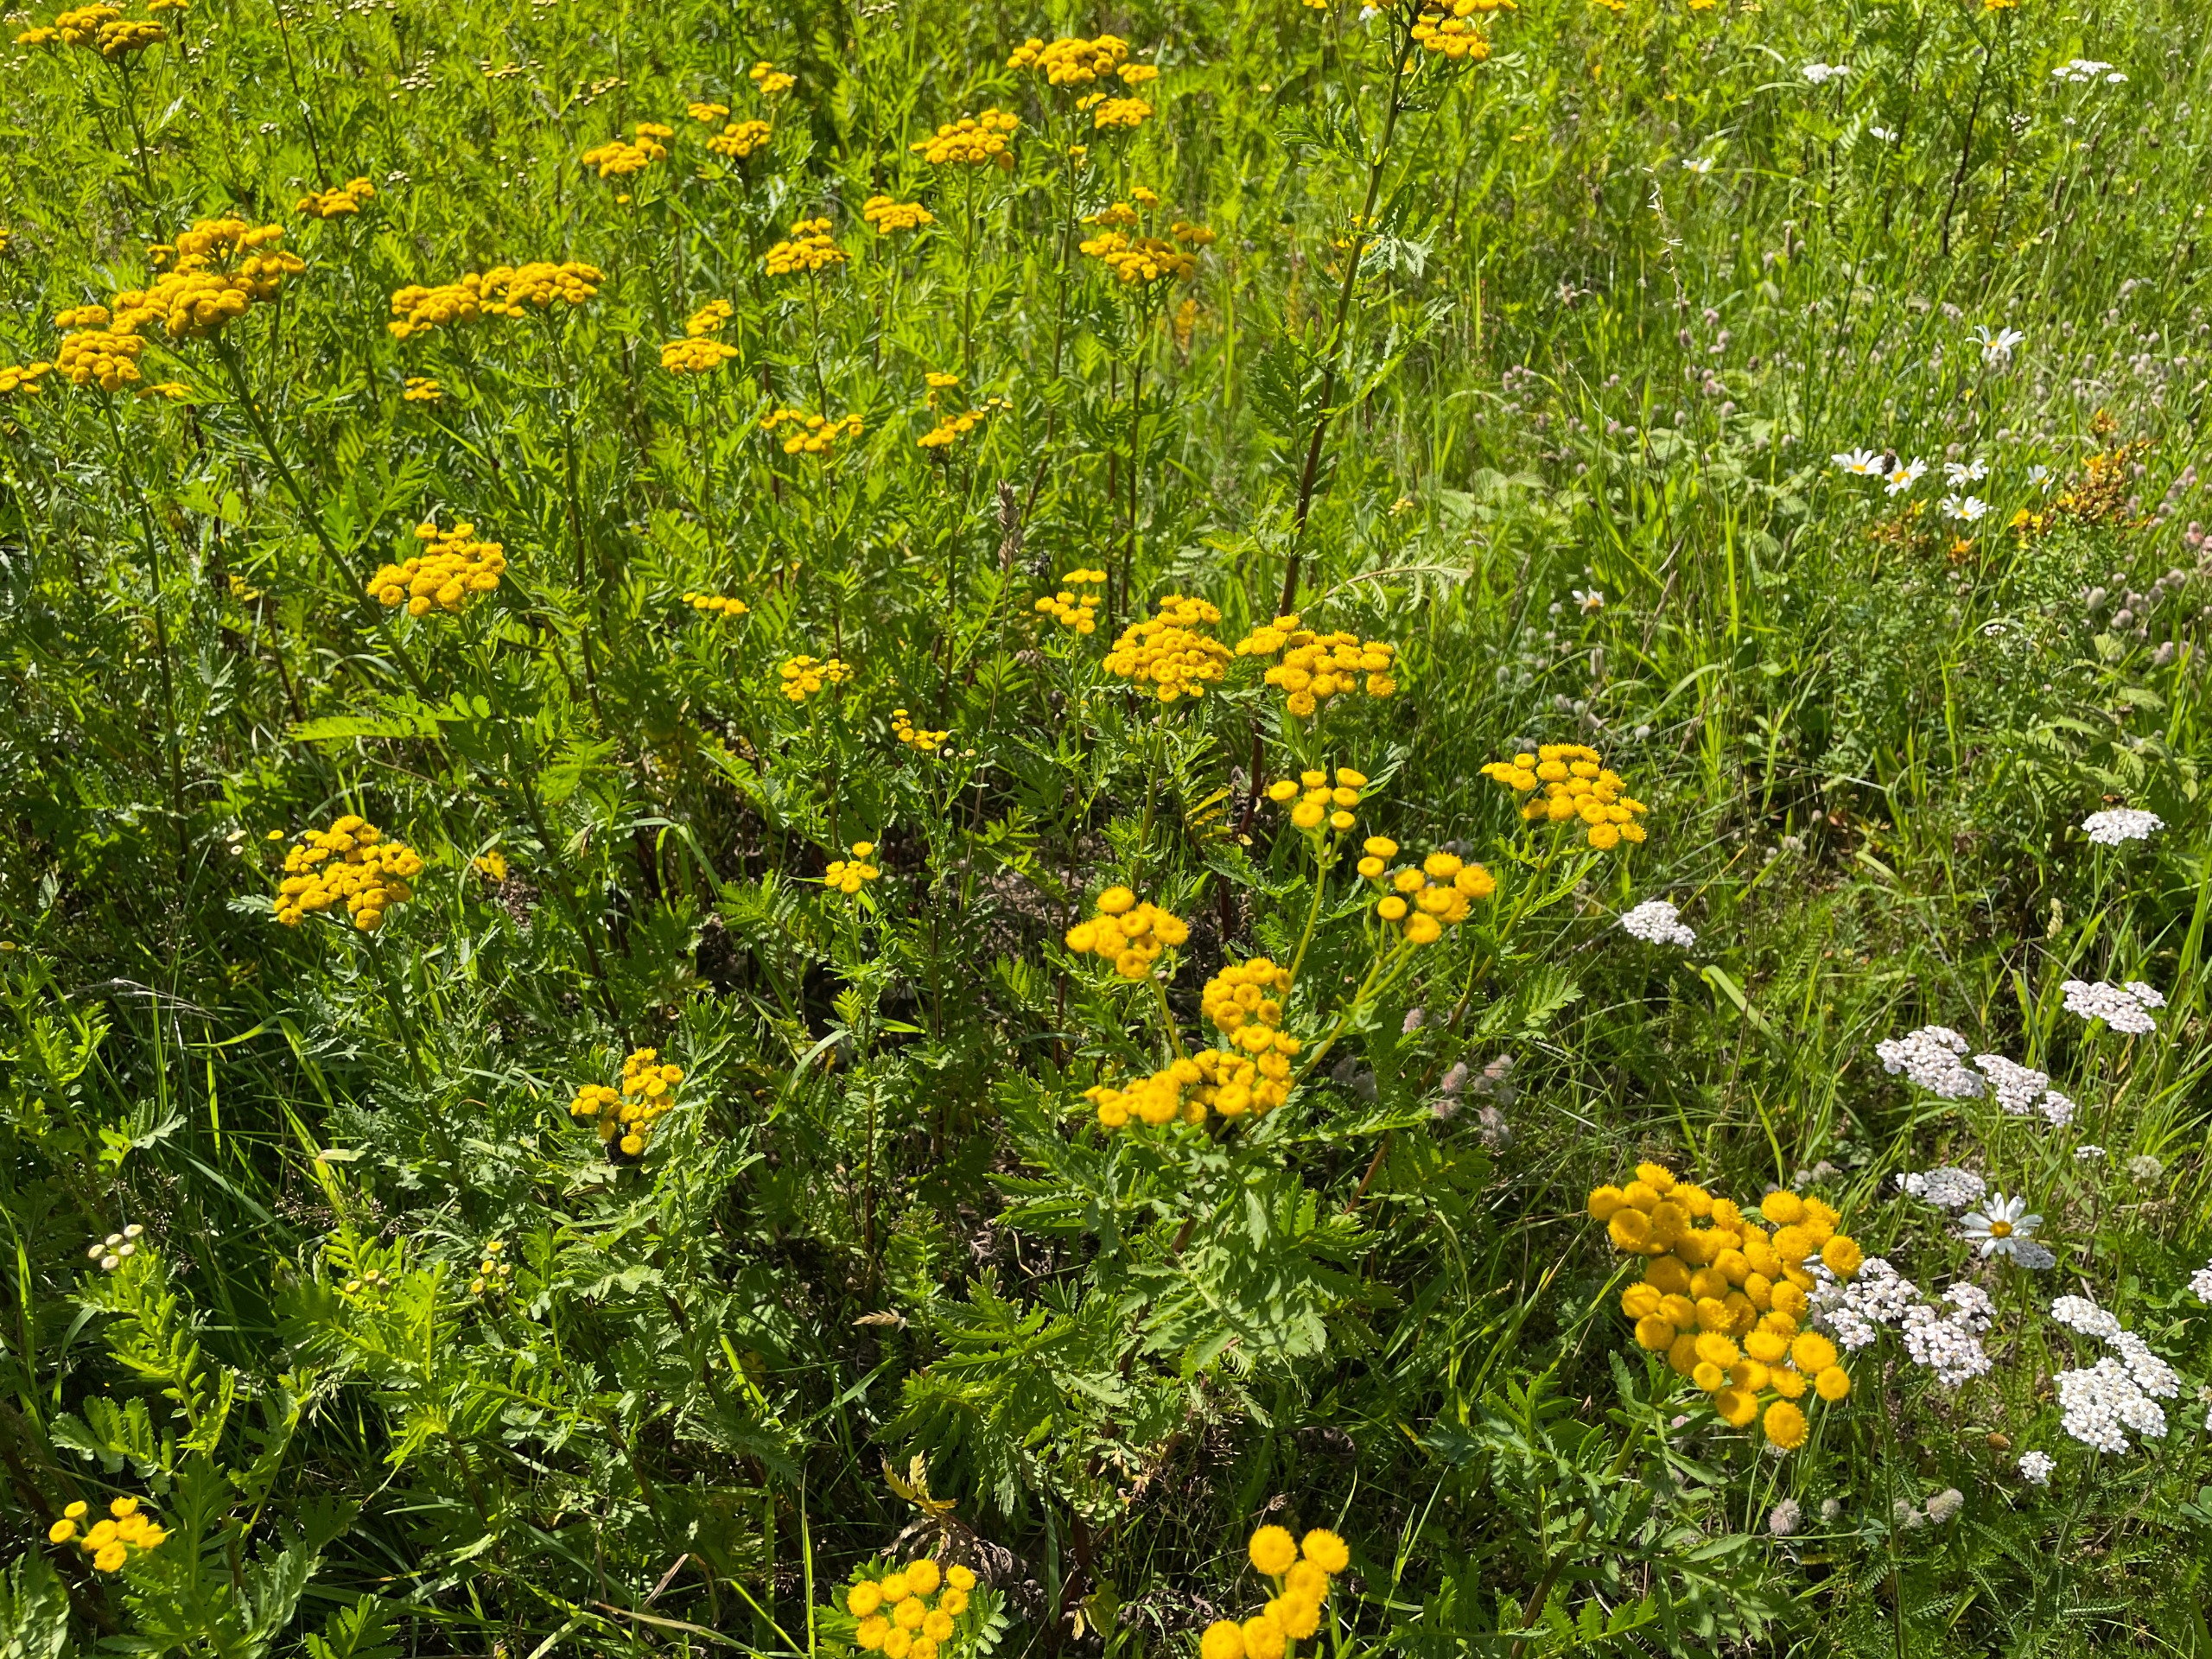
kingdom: Plantae
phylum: Tracheophyta
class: Magnoliopsida
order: Asterales
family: Asteraceae
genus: Tanacetum
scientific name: Tanacetum vulgare
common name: Rejnfan
